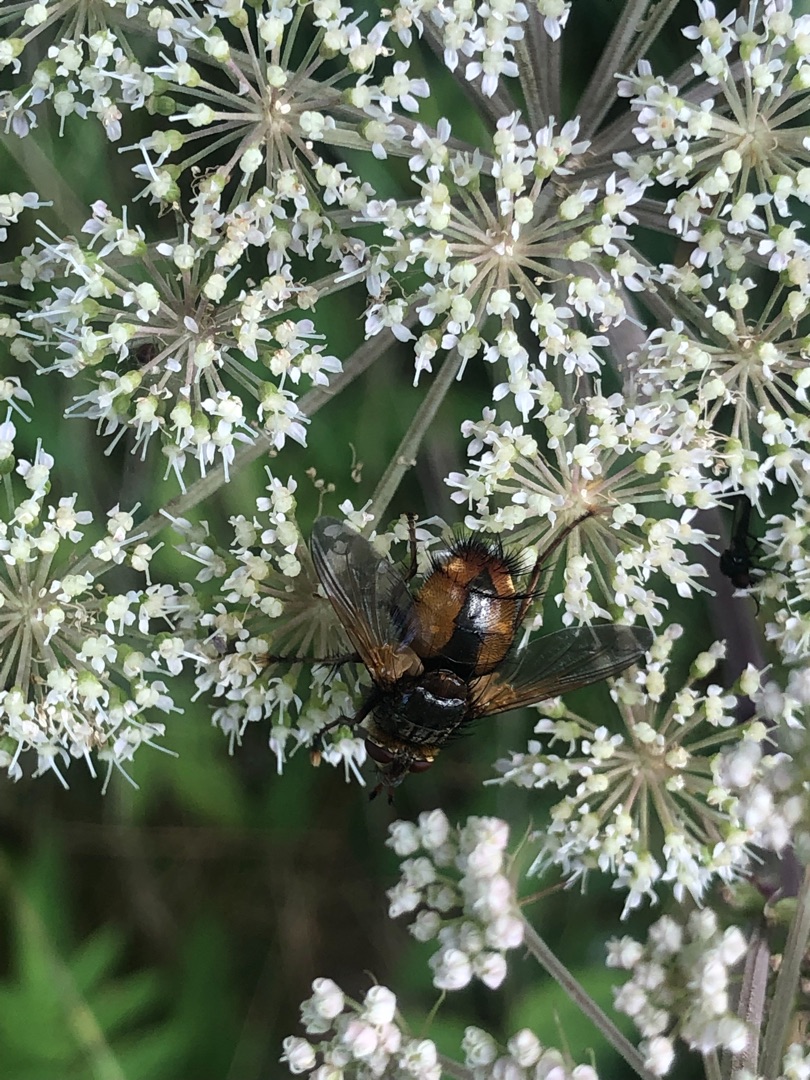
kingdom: Animalia
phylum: Arthropoda
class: Insecta
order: Diptera
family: Tachinidae
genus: Tachina
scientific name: Tachina fera
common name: Mellemfluen oskar
